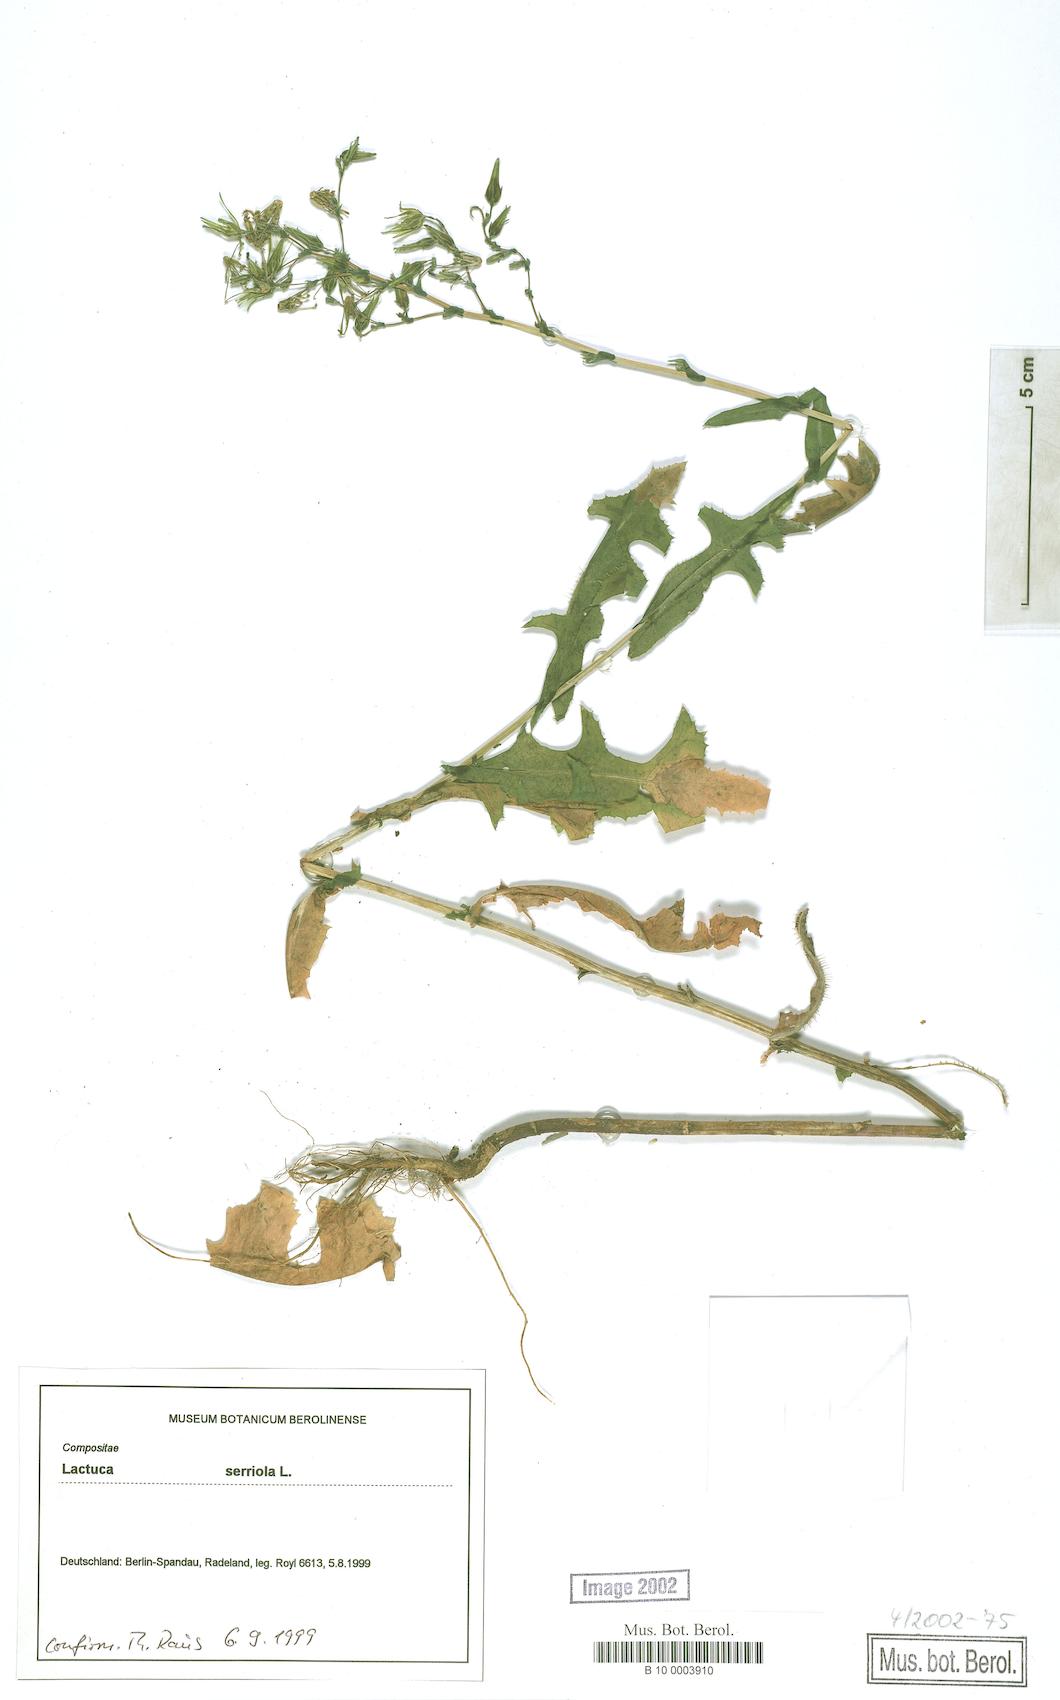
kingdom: Plantae
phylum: Tracheophyta
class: Magnoliopsida
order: Asterales
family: Asteraceae
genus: Lactuca
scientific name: Lactuca serriola
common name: Prickly lettuce
